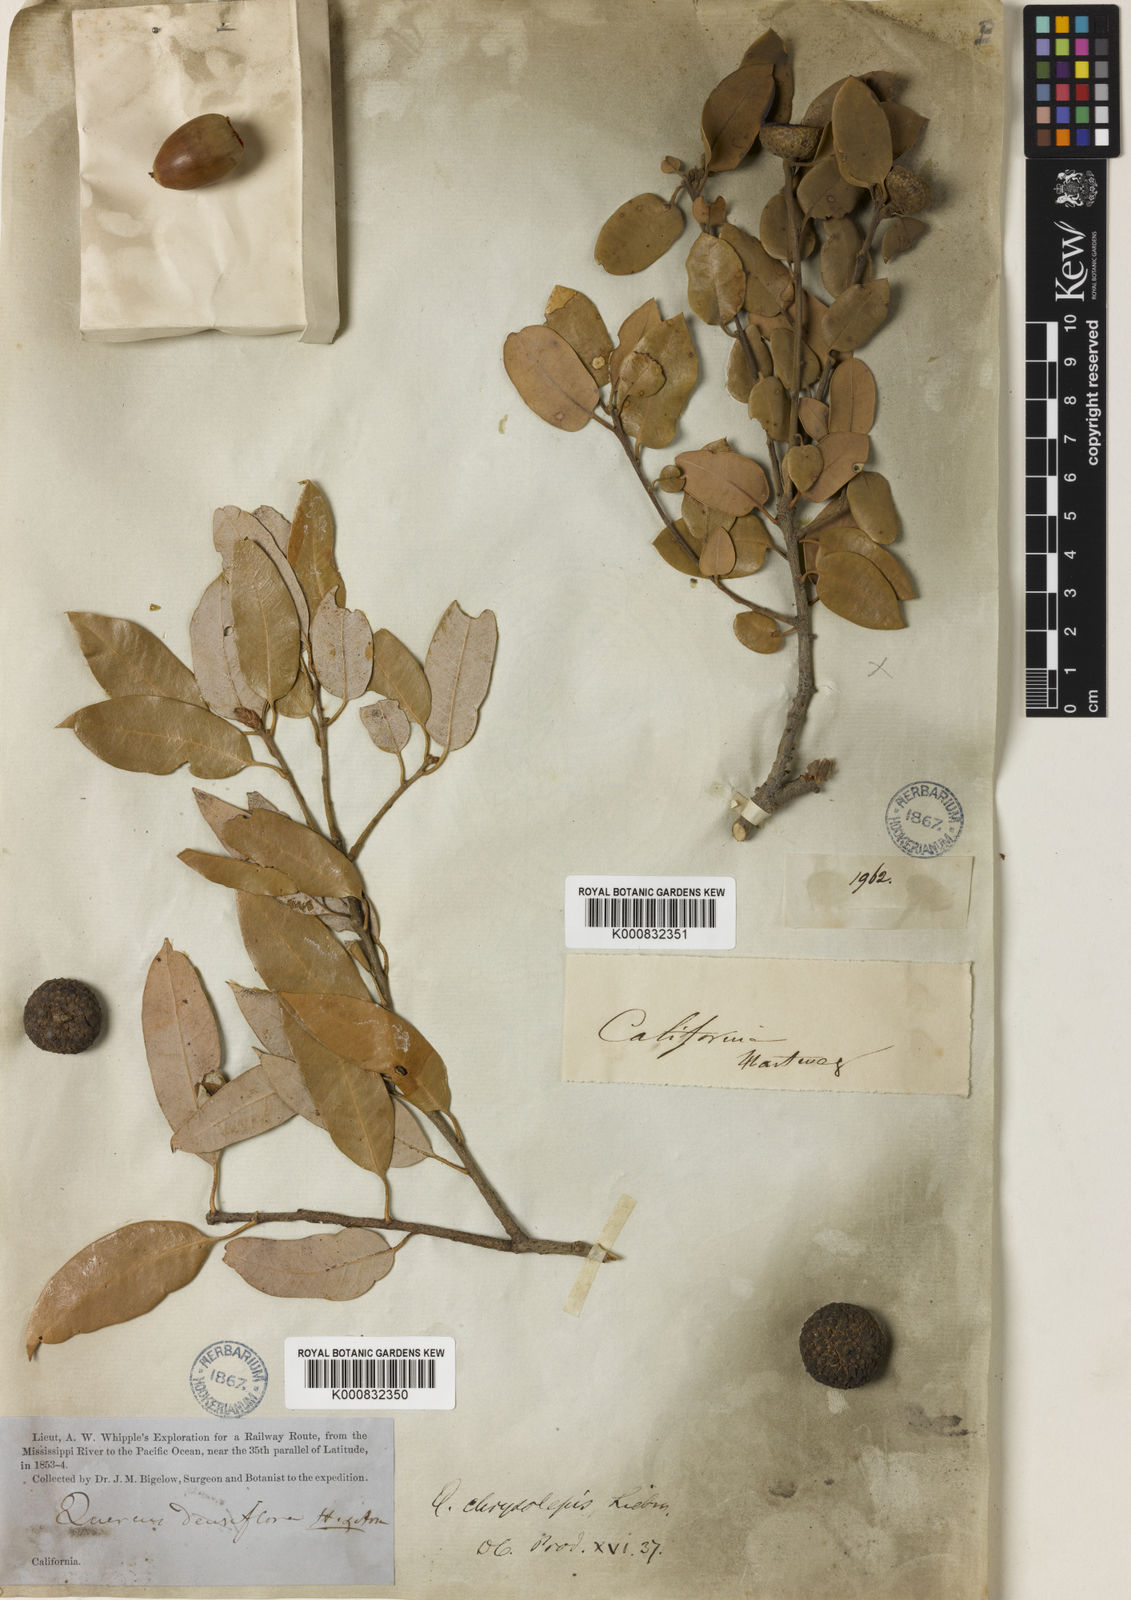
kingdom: Plantae
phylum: Tracheophyta
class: Magnoliopsida
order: Fagales
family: Fagaceae
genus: Quercus
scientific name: Quercus chrysolepis
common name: Canyon live oak
